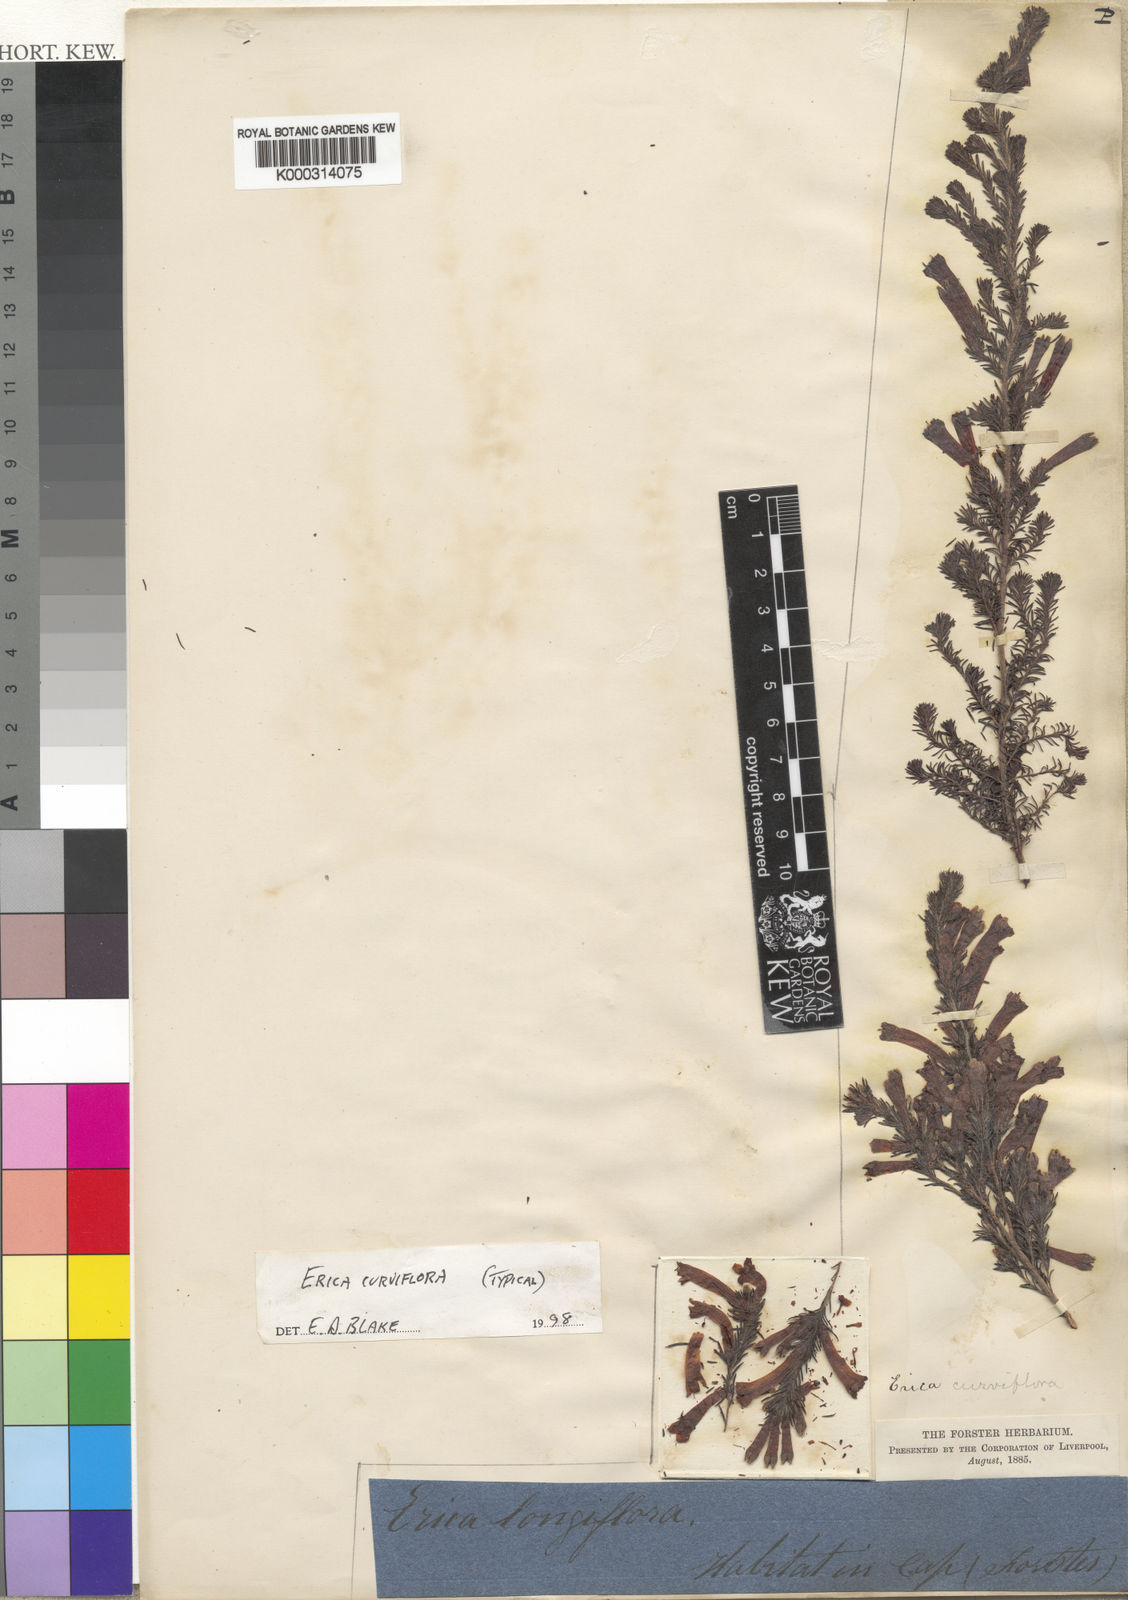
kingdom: Plantae
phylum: Tracheophyta
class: Magnoliopsida
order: Ericales
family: Ericaceae
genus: Erica
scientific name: Erica curviflora
